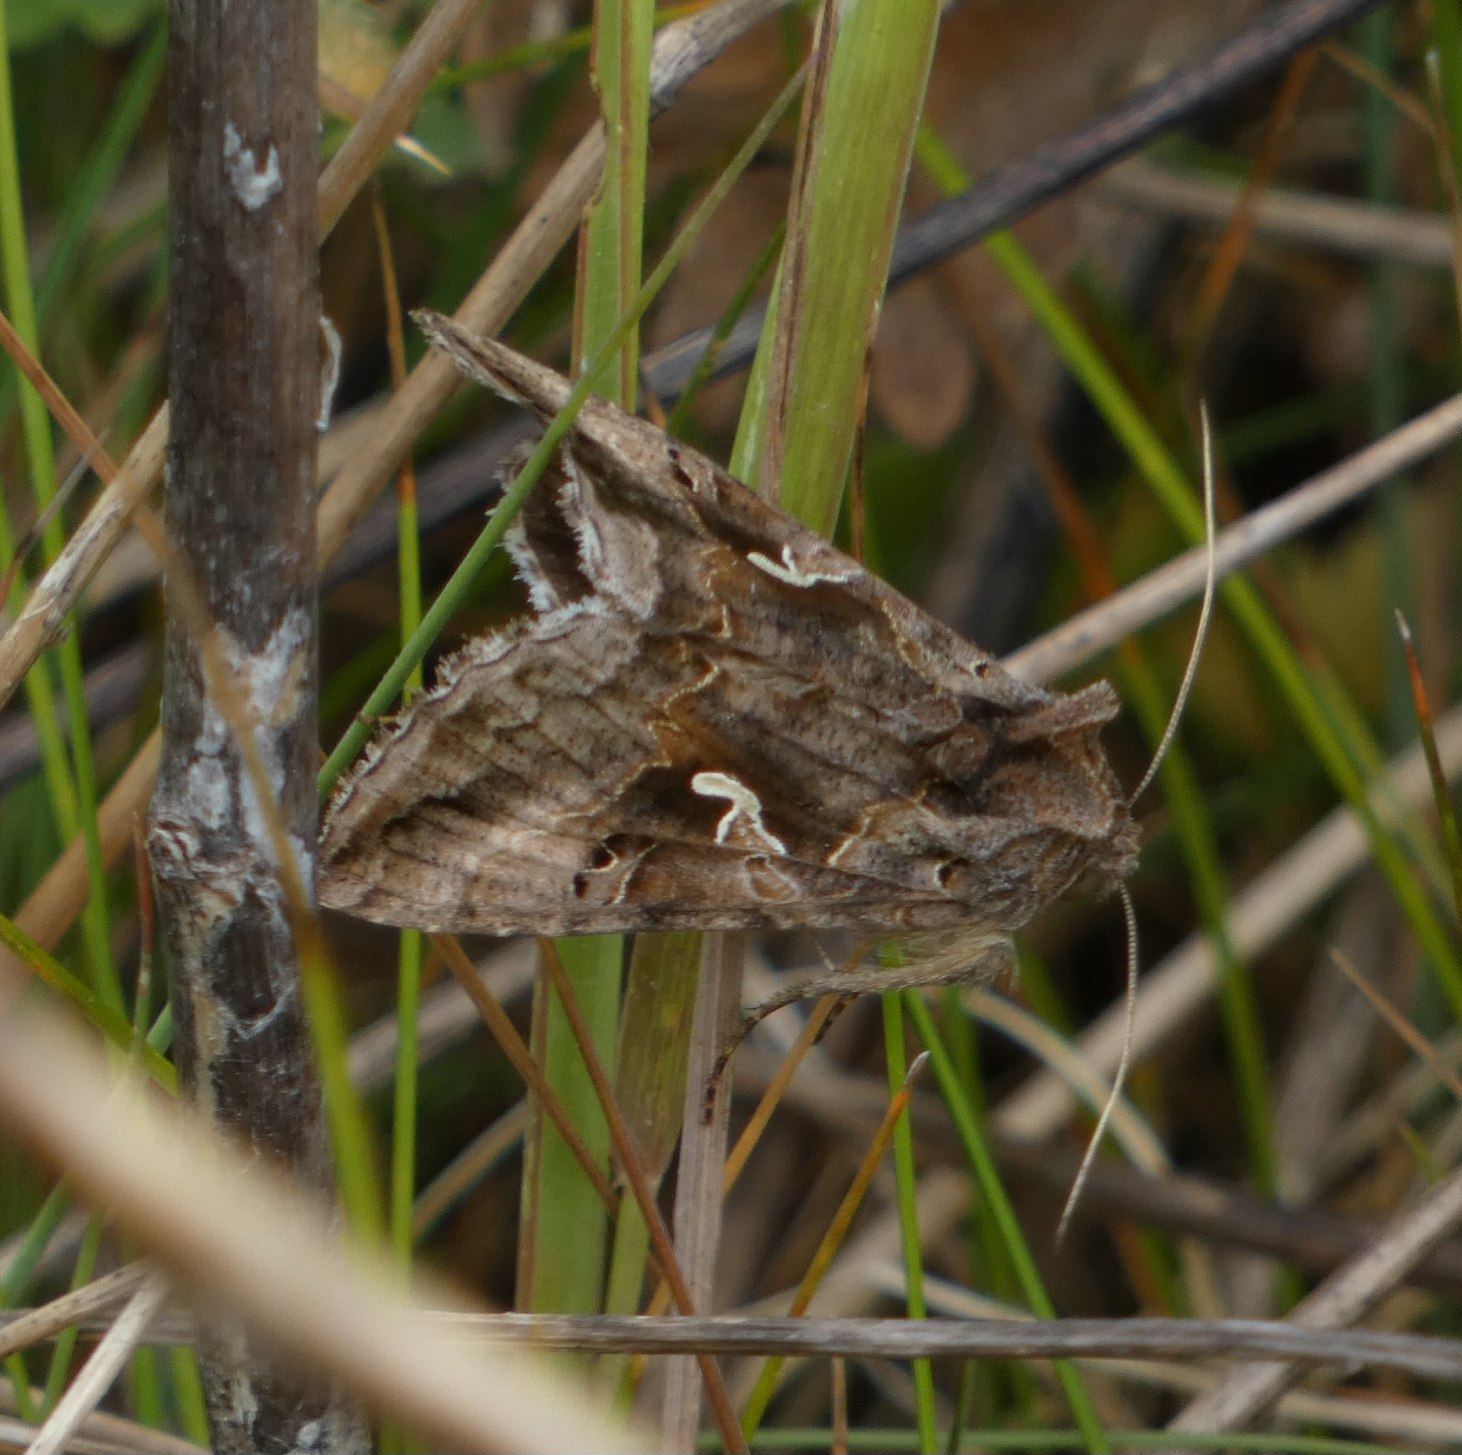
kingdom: Animalia
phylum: Arthropoda
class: Insecta
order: Lepidoptera
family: Noctuidae
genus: Autographa
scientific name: Autographa gamma
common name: Gammaugle
